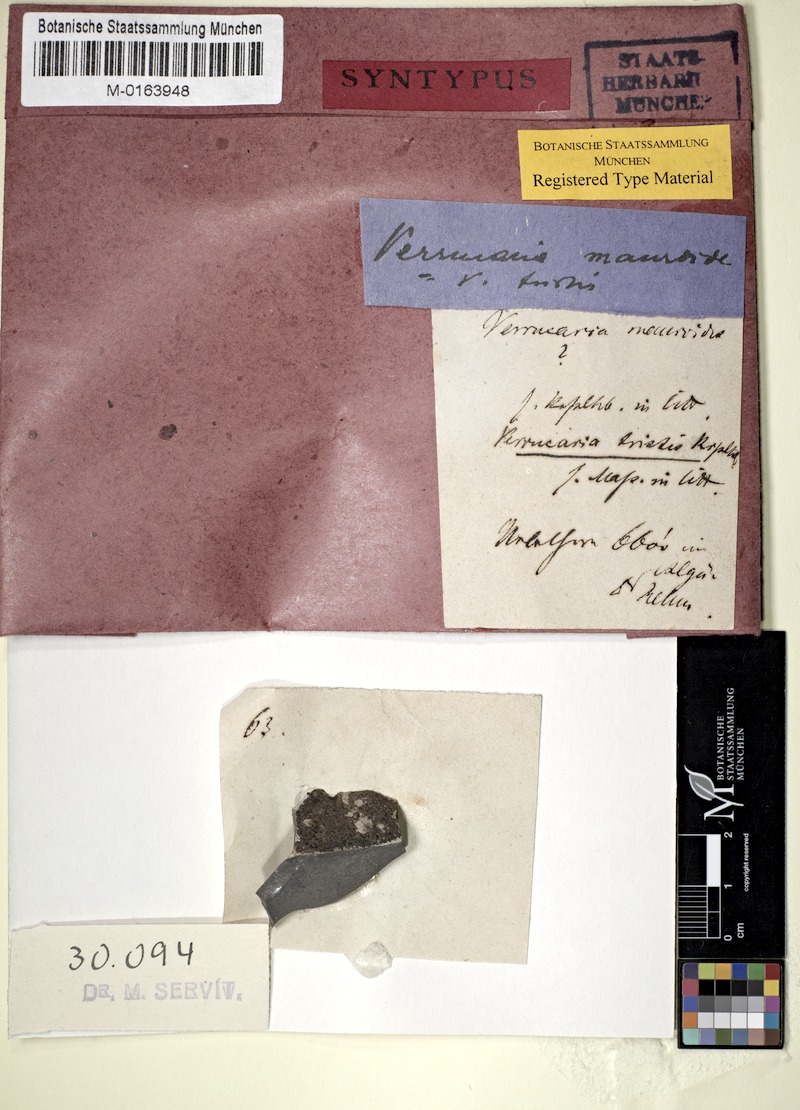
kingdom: Fungi
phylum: Ascomycota
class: Eurotiomycetes
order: Verrucariales
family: Verrucariaceae
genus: Verrucaria
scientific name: Verrucaria Lithocia tristis
